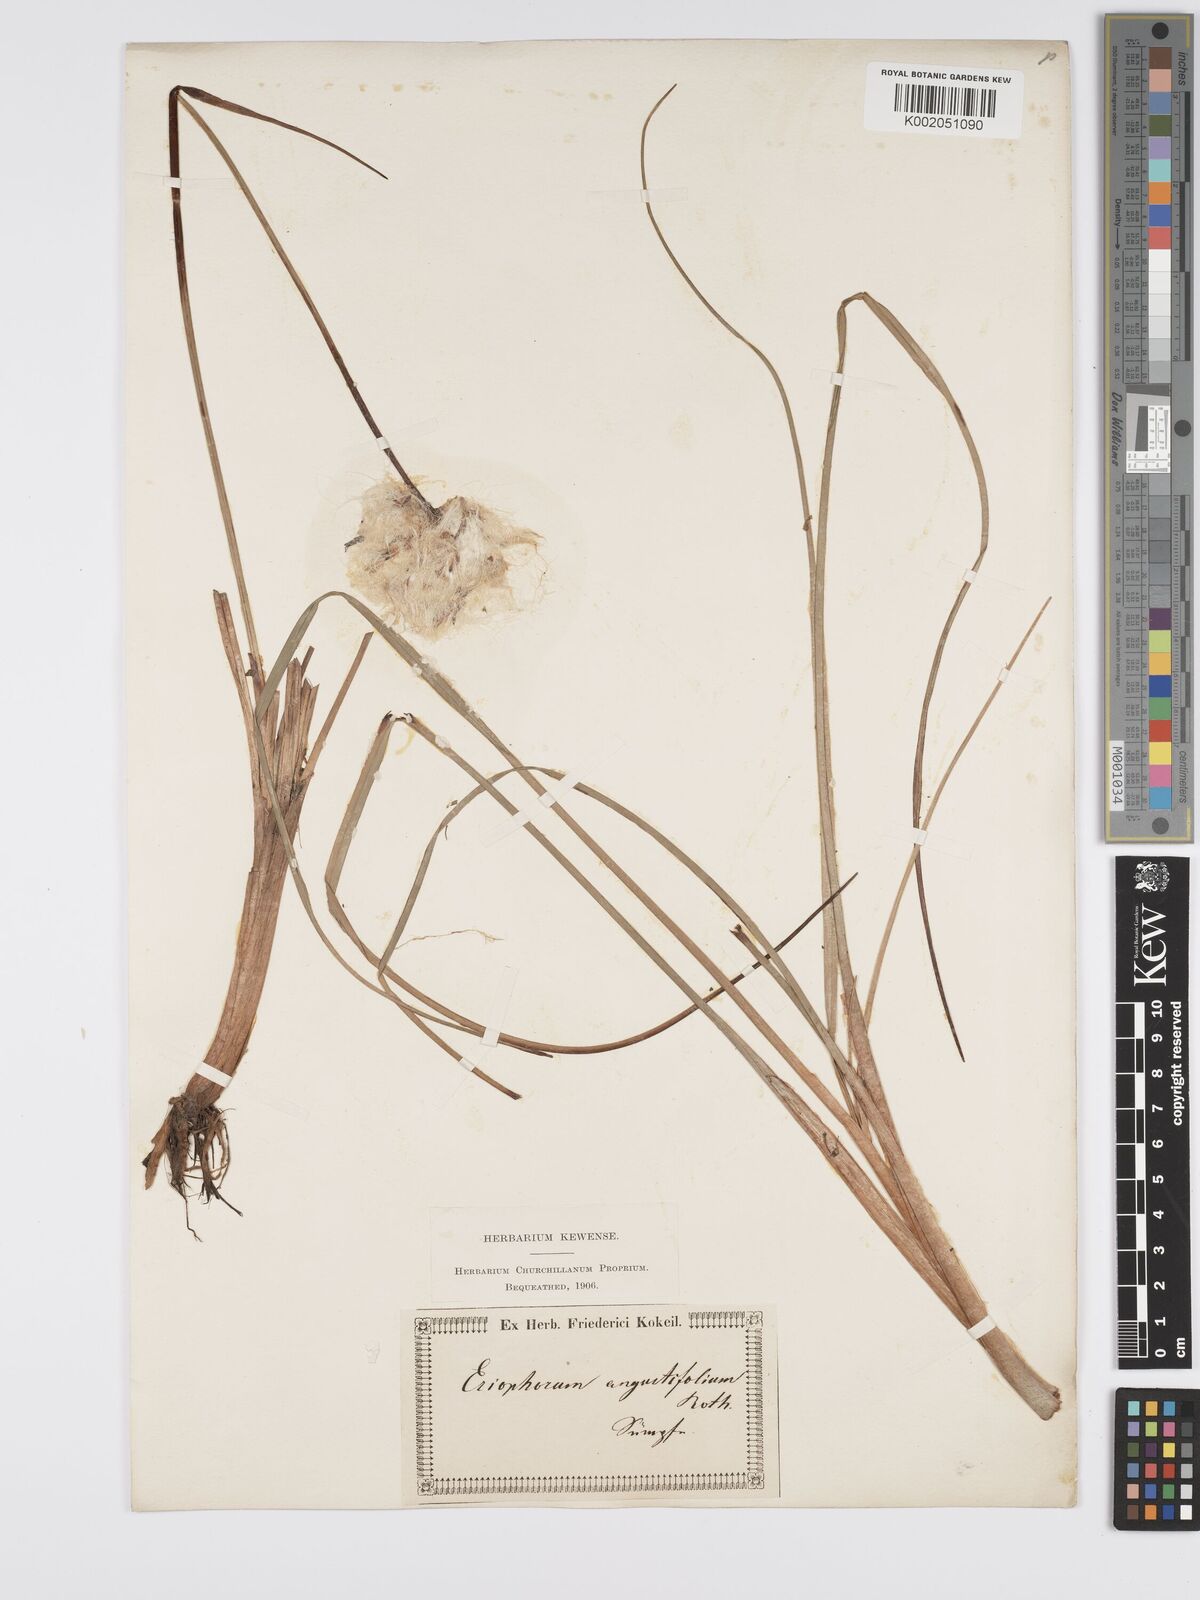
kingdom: Plantae
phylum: Tracheophyta
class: Liliopsida
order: Poales
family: Cyperaceae
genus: Eriophorum
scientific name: Eriophorum angustifolium
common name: Common cottongrass
